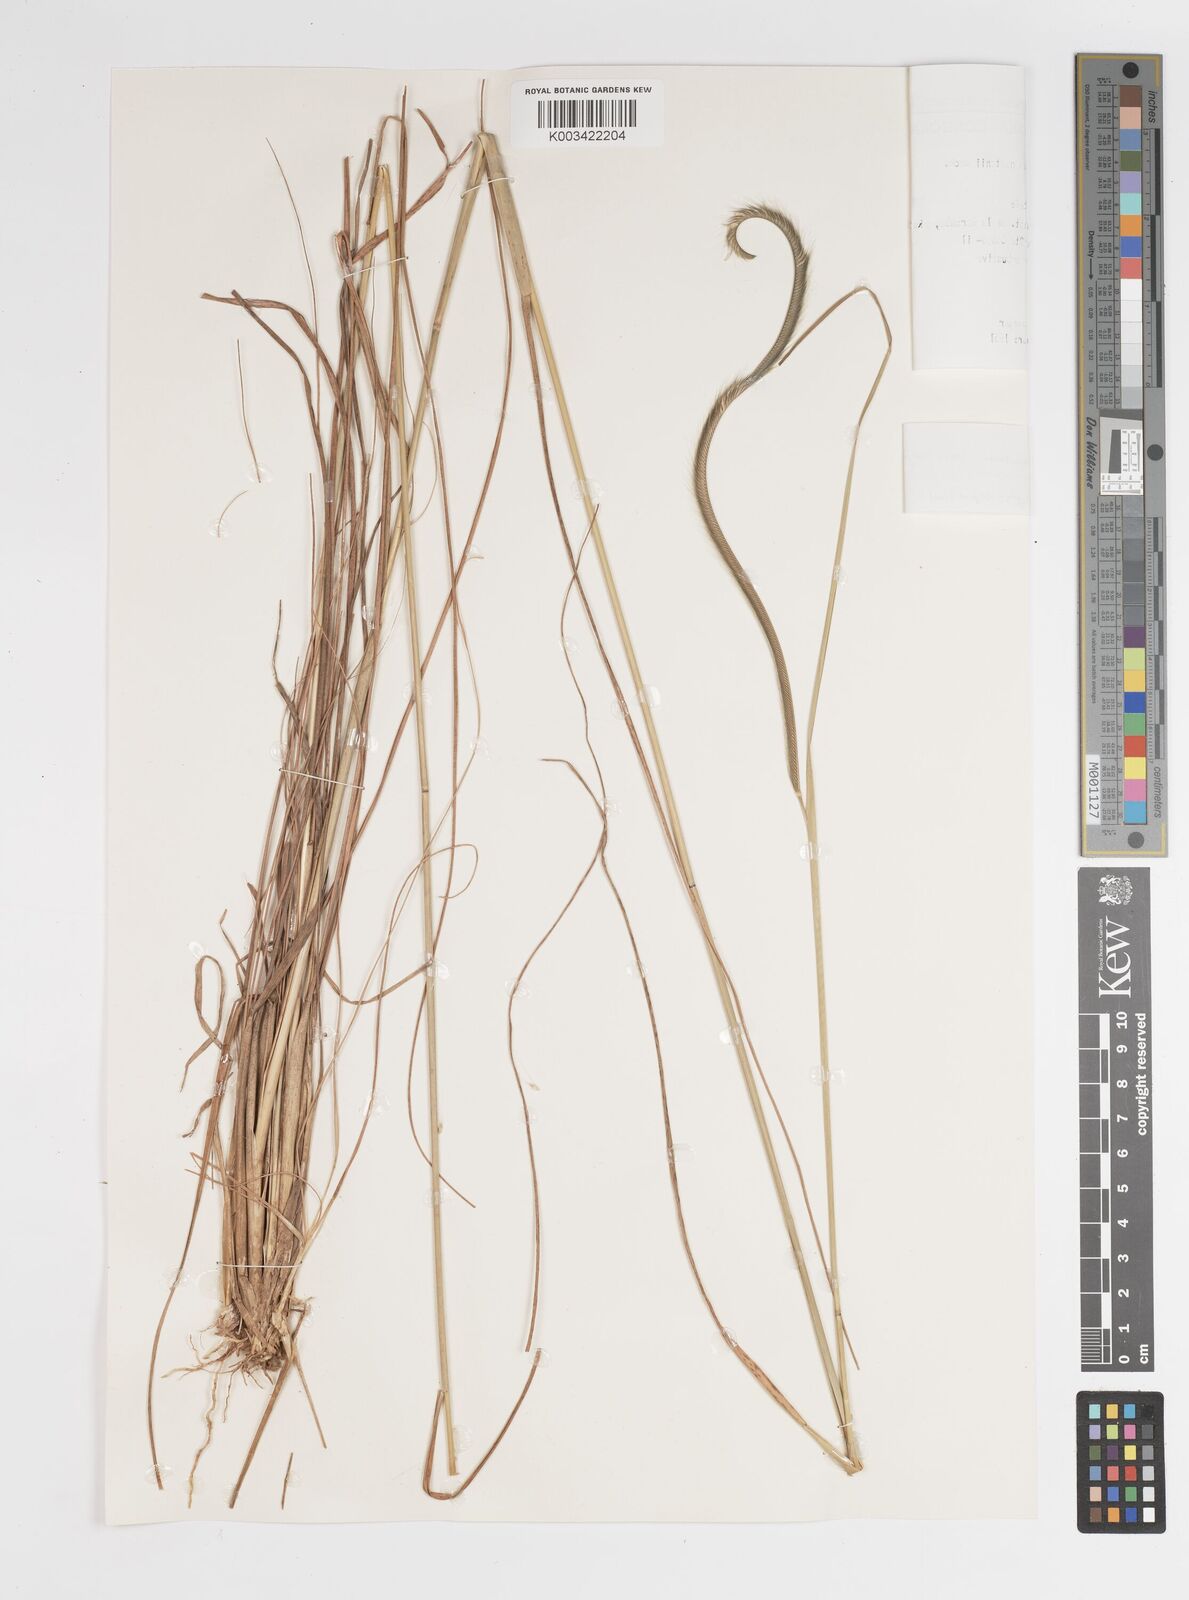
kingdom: Plantae
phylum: Tracheophyta
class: Liliopsida
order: Poales
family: Poaceae
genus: Ctenium
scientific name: Ctenium newtonii
